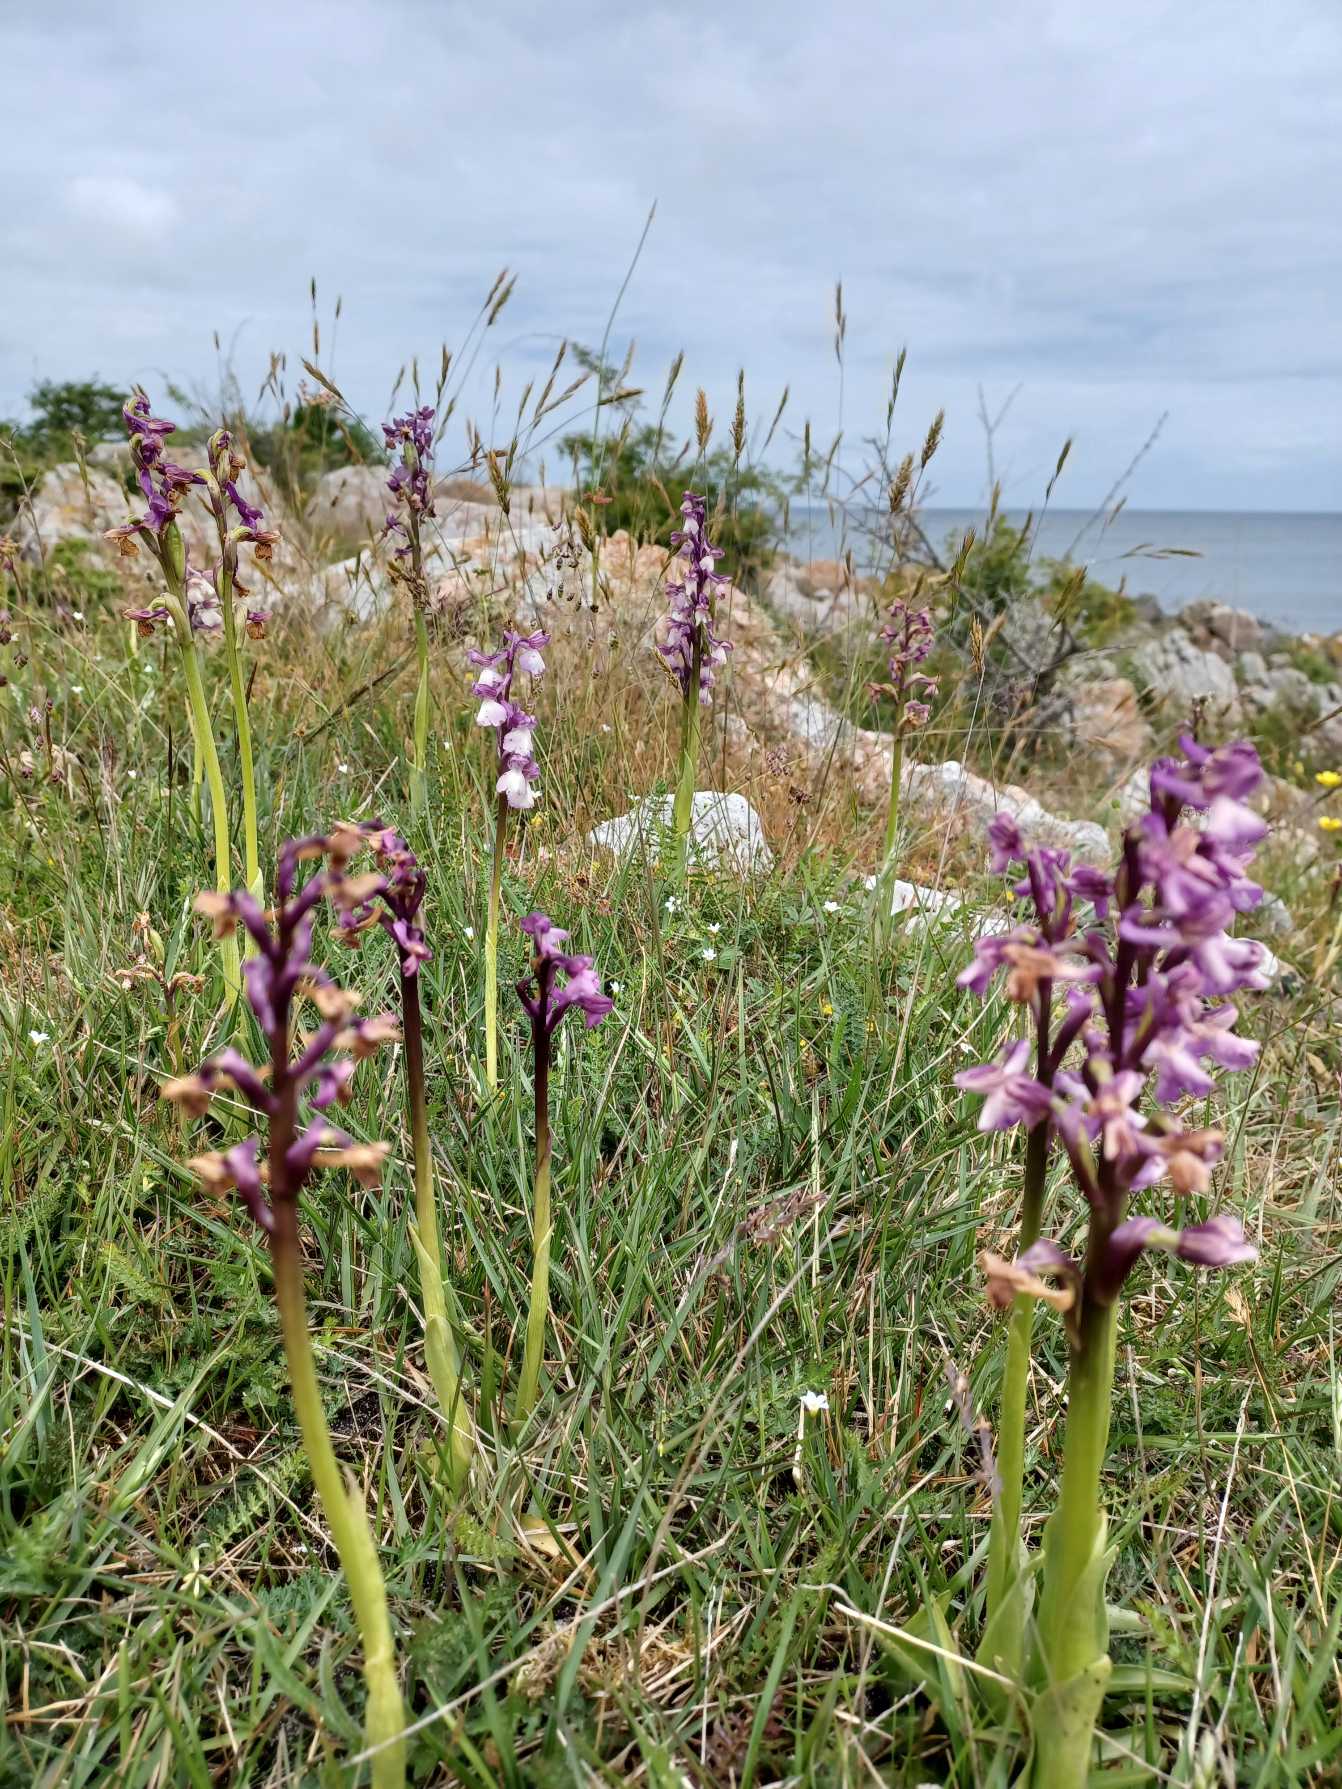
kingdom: Plantae
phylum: Tracheophyta
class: Liliopsida
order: Asparagales
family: Orchidaceae
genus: Anacamptis
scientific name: Anacamptis morio
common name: Salepgøgeurt
